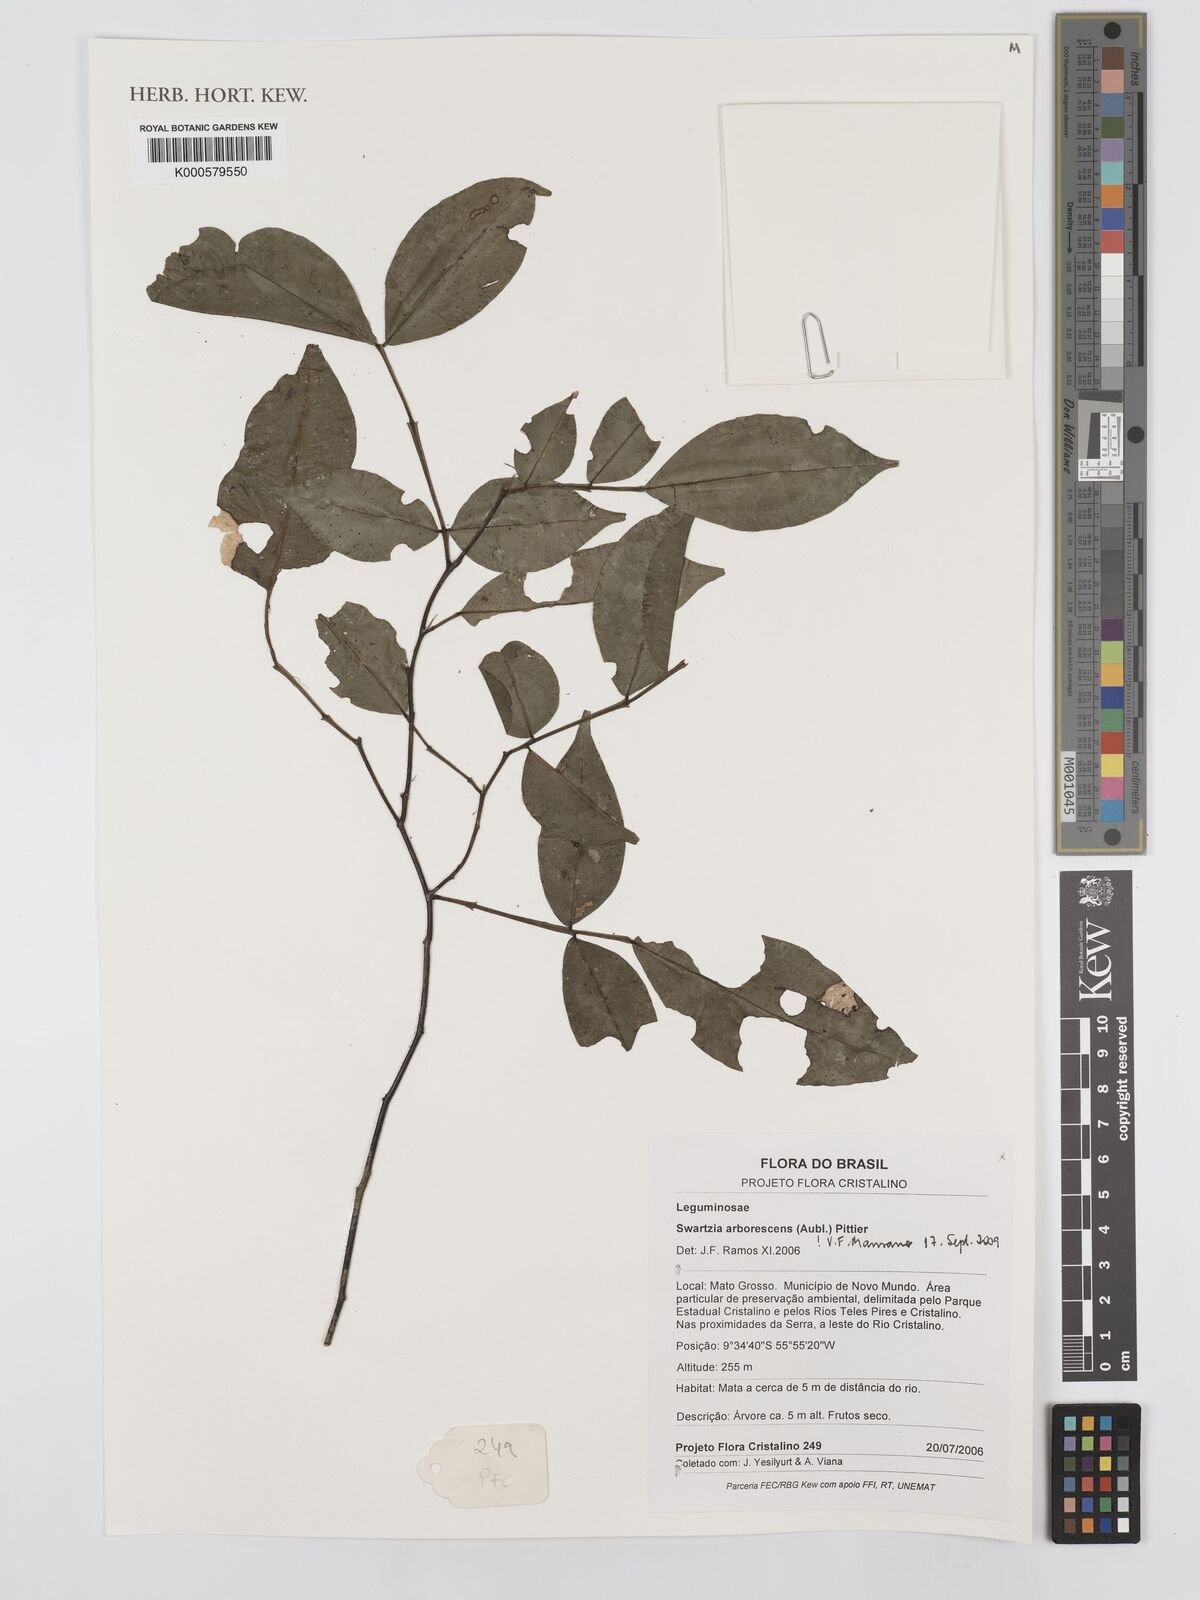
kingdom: Plantae
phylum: Tracheophyta
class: Magnoliopsida
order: Fabales
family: Fabaceae
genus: Swartzia
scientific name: Swartzia arborescens
